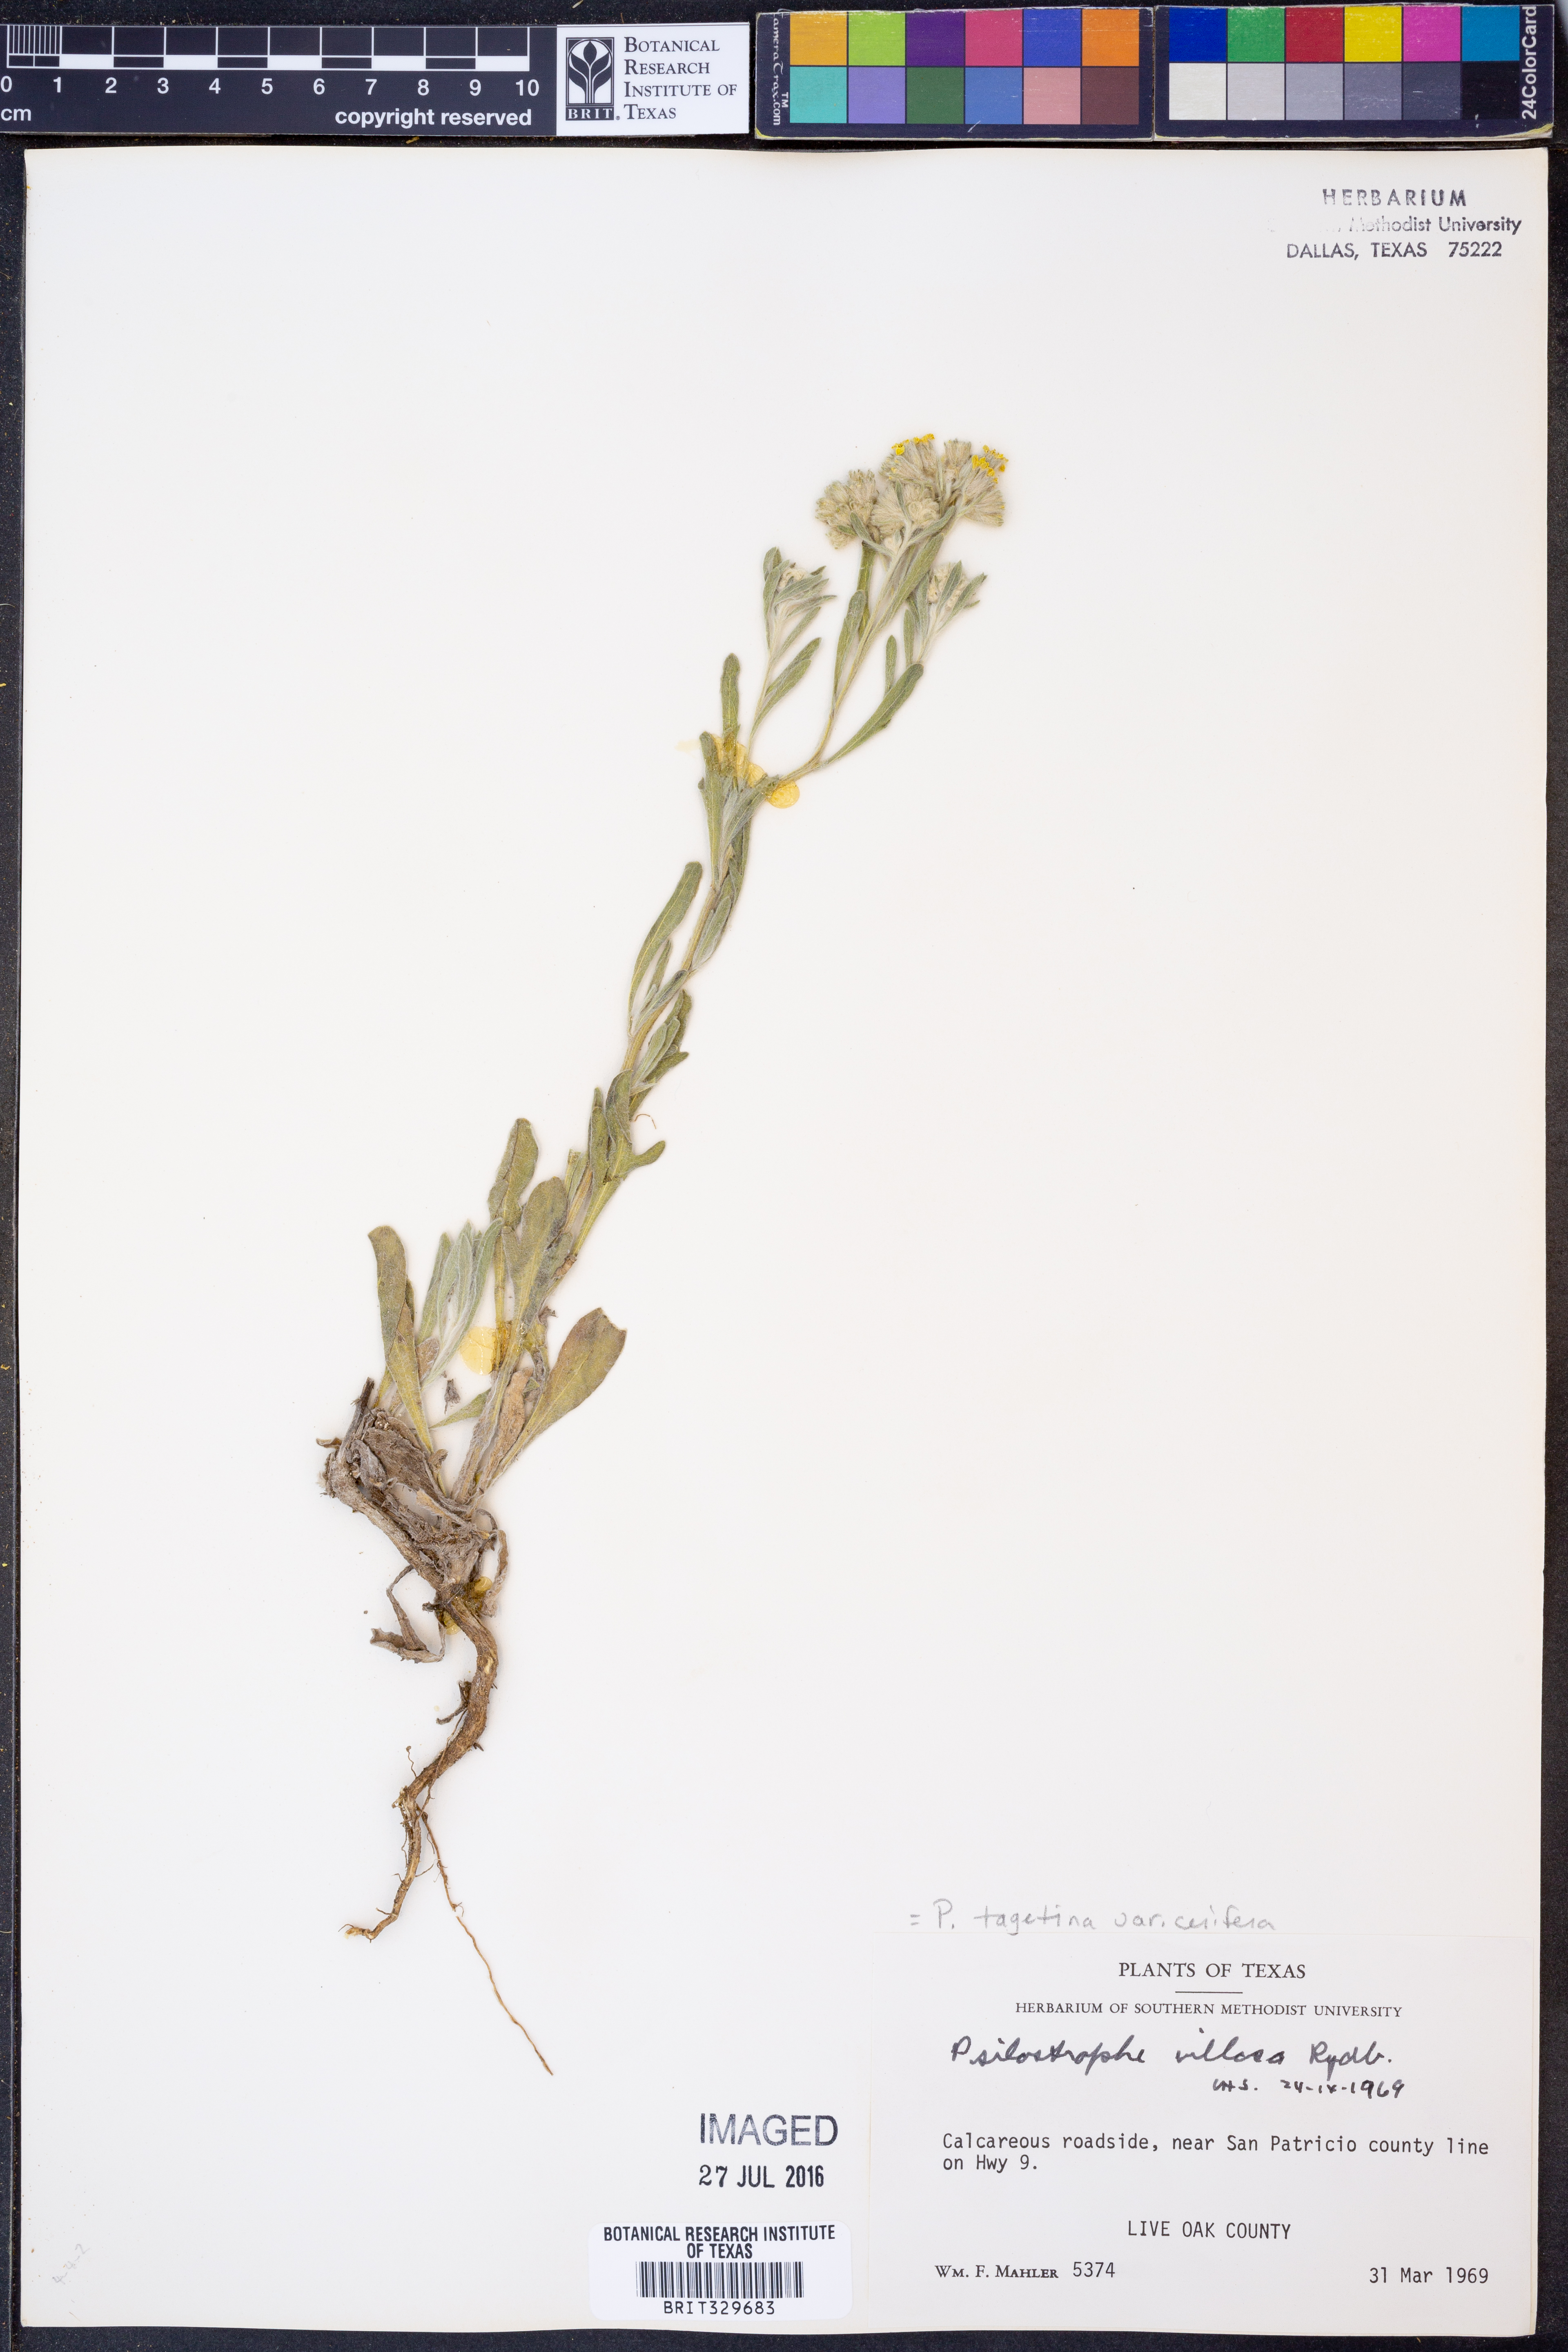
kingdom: Plantae
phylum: Tracheophyta
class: Magnoliopsida
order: Asterales
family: Asteraceae
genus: Psilostrophe
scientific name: Psilostrophe villosa
